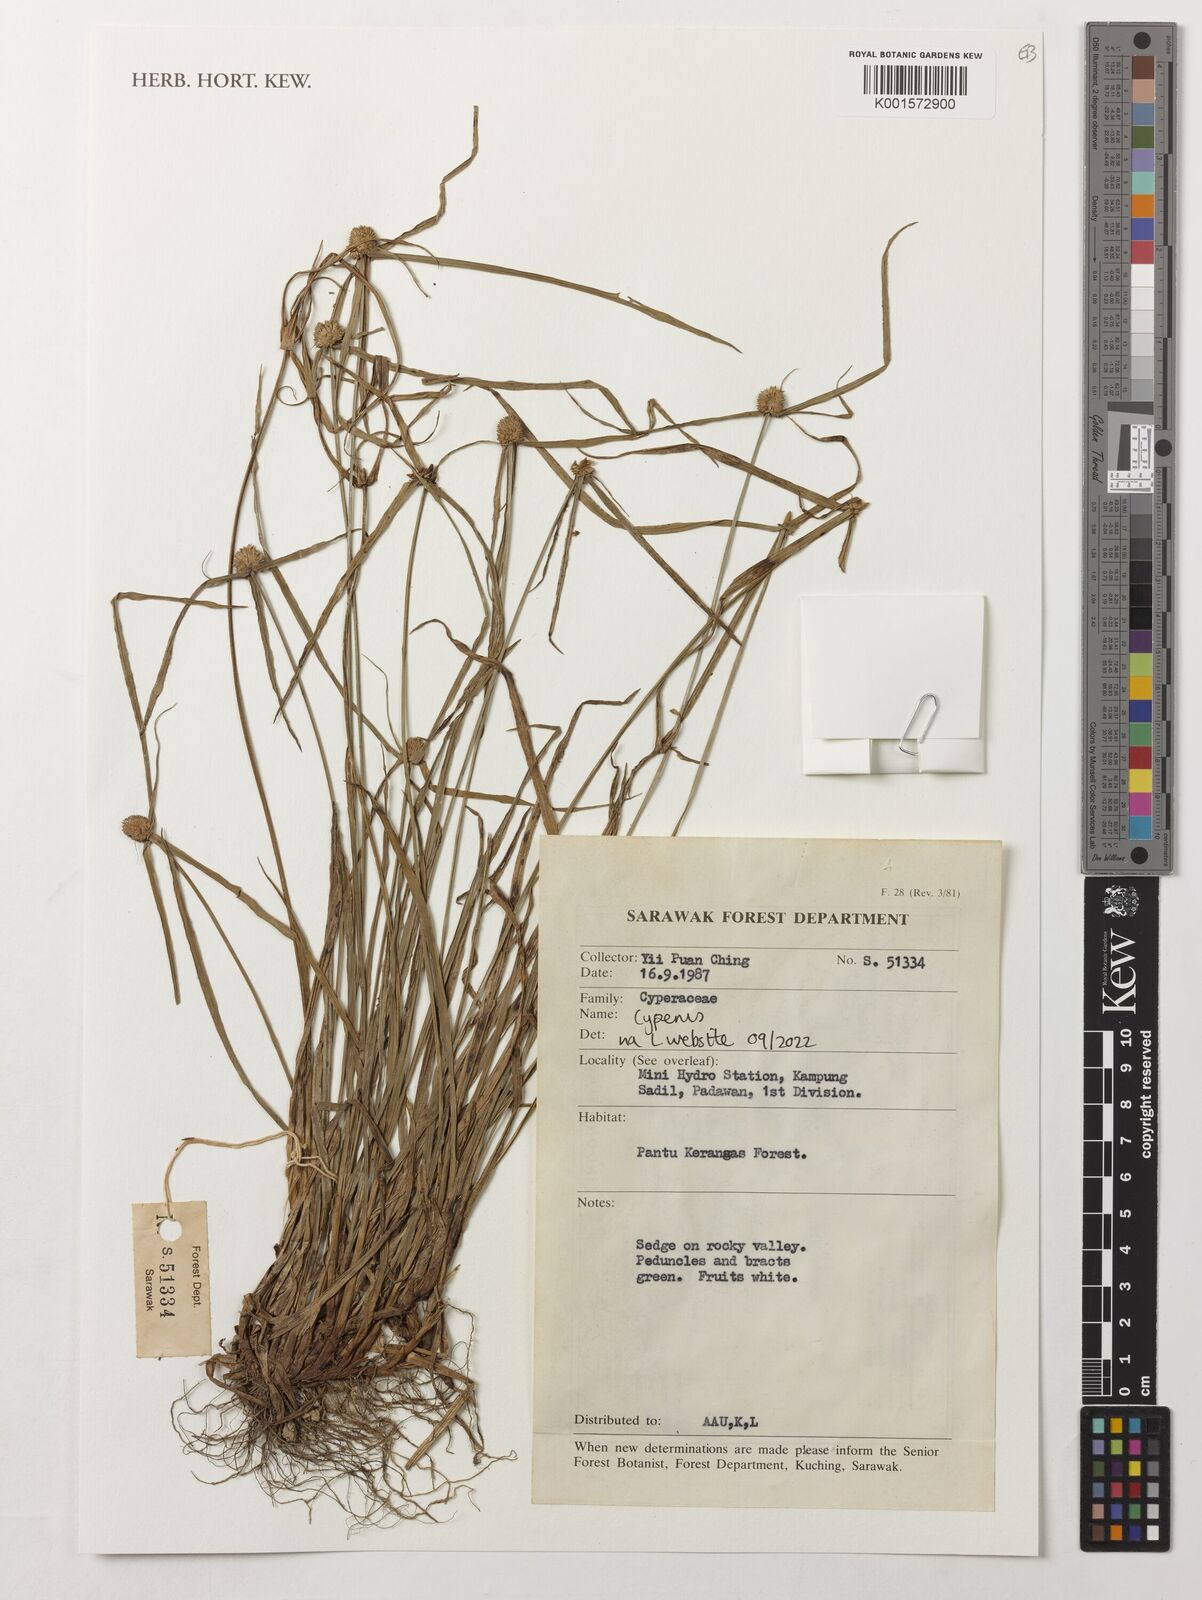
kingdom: Plantae
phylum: Tracheophyta
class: Liliopsida
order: Poales
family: Cyperaceae
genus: Cyperus
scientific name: Cyperus
